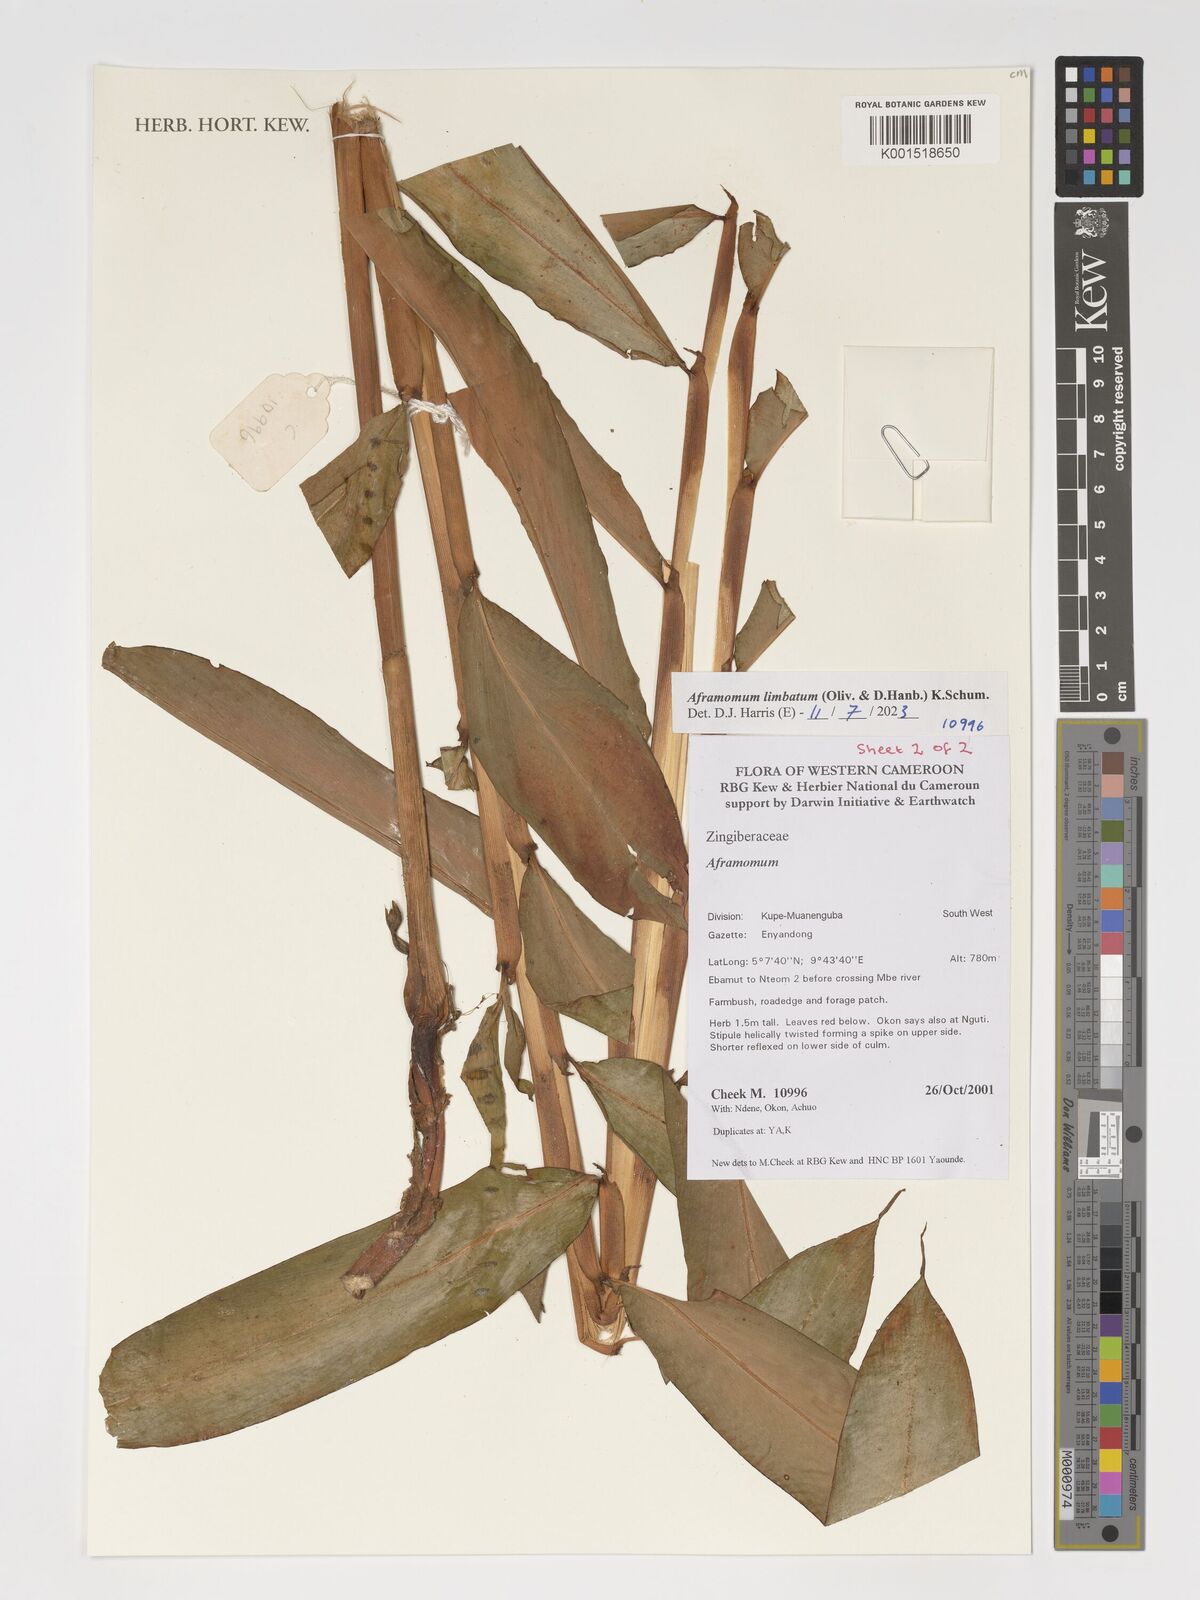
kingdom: Plantae
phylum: Tracheophyta
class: Liliopsida
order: Zingiberales
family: Zingiberaceae
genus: Aframomum
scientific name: Aframomum limbatum
